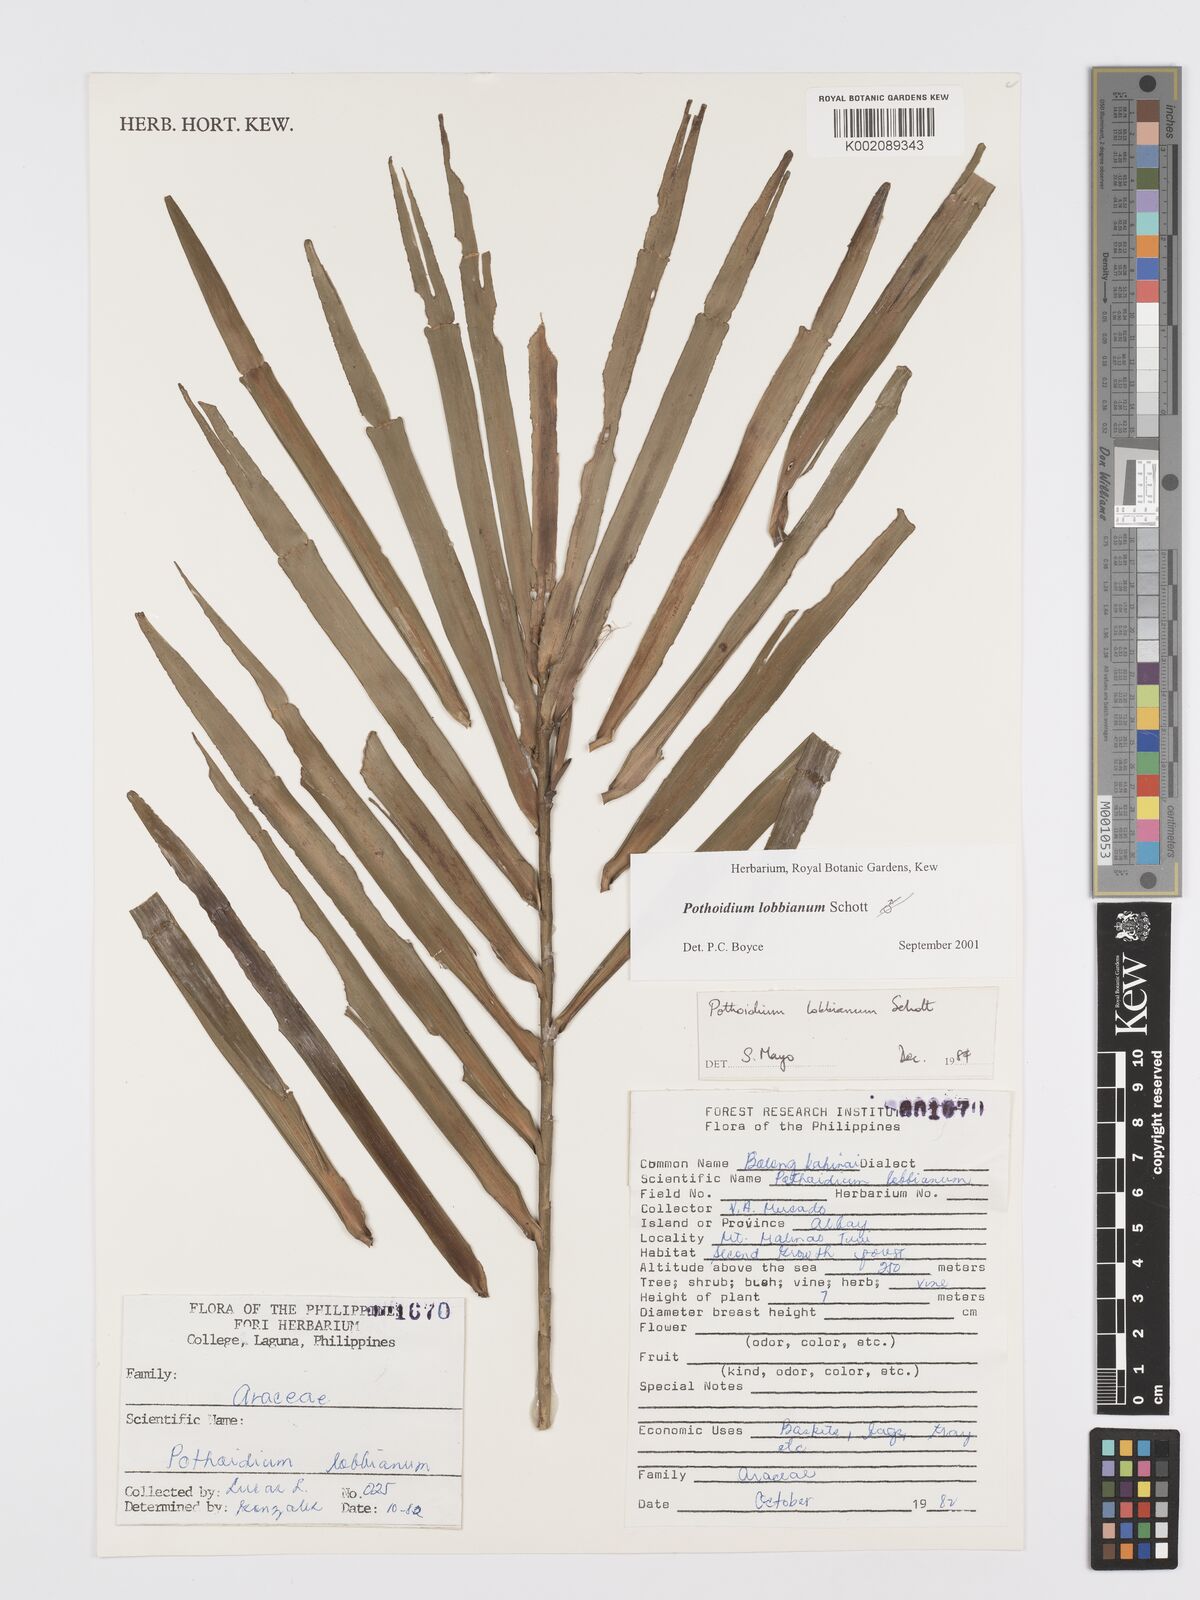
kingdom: Plantae
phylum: Tracheophyta
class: Liliopsida
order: Alismatales
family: Araceae
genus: Pothoidium
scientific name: Pothoidium lobbianum
